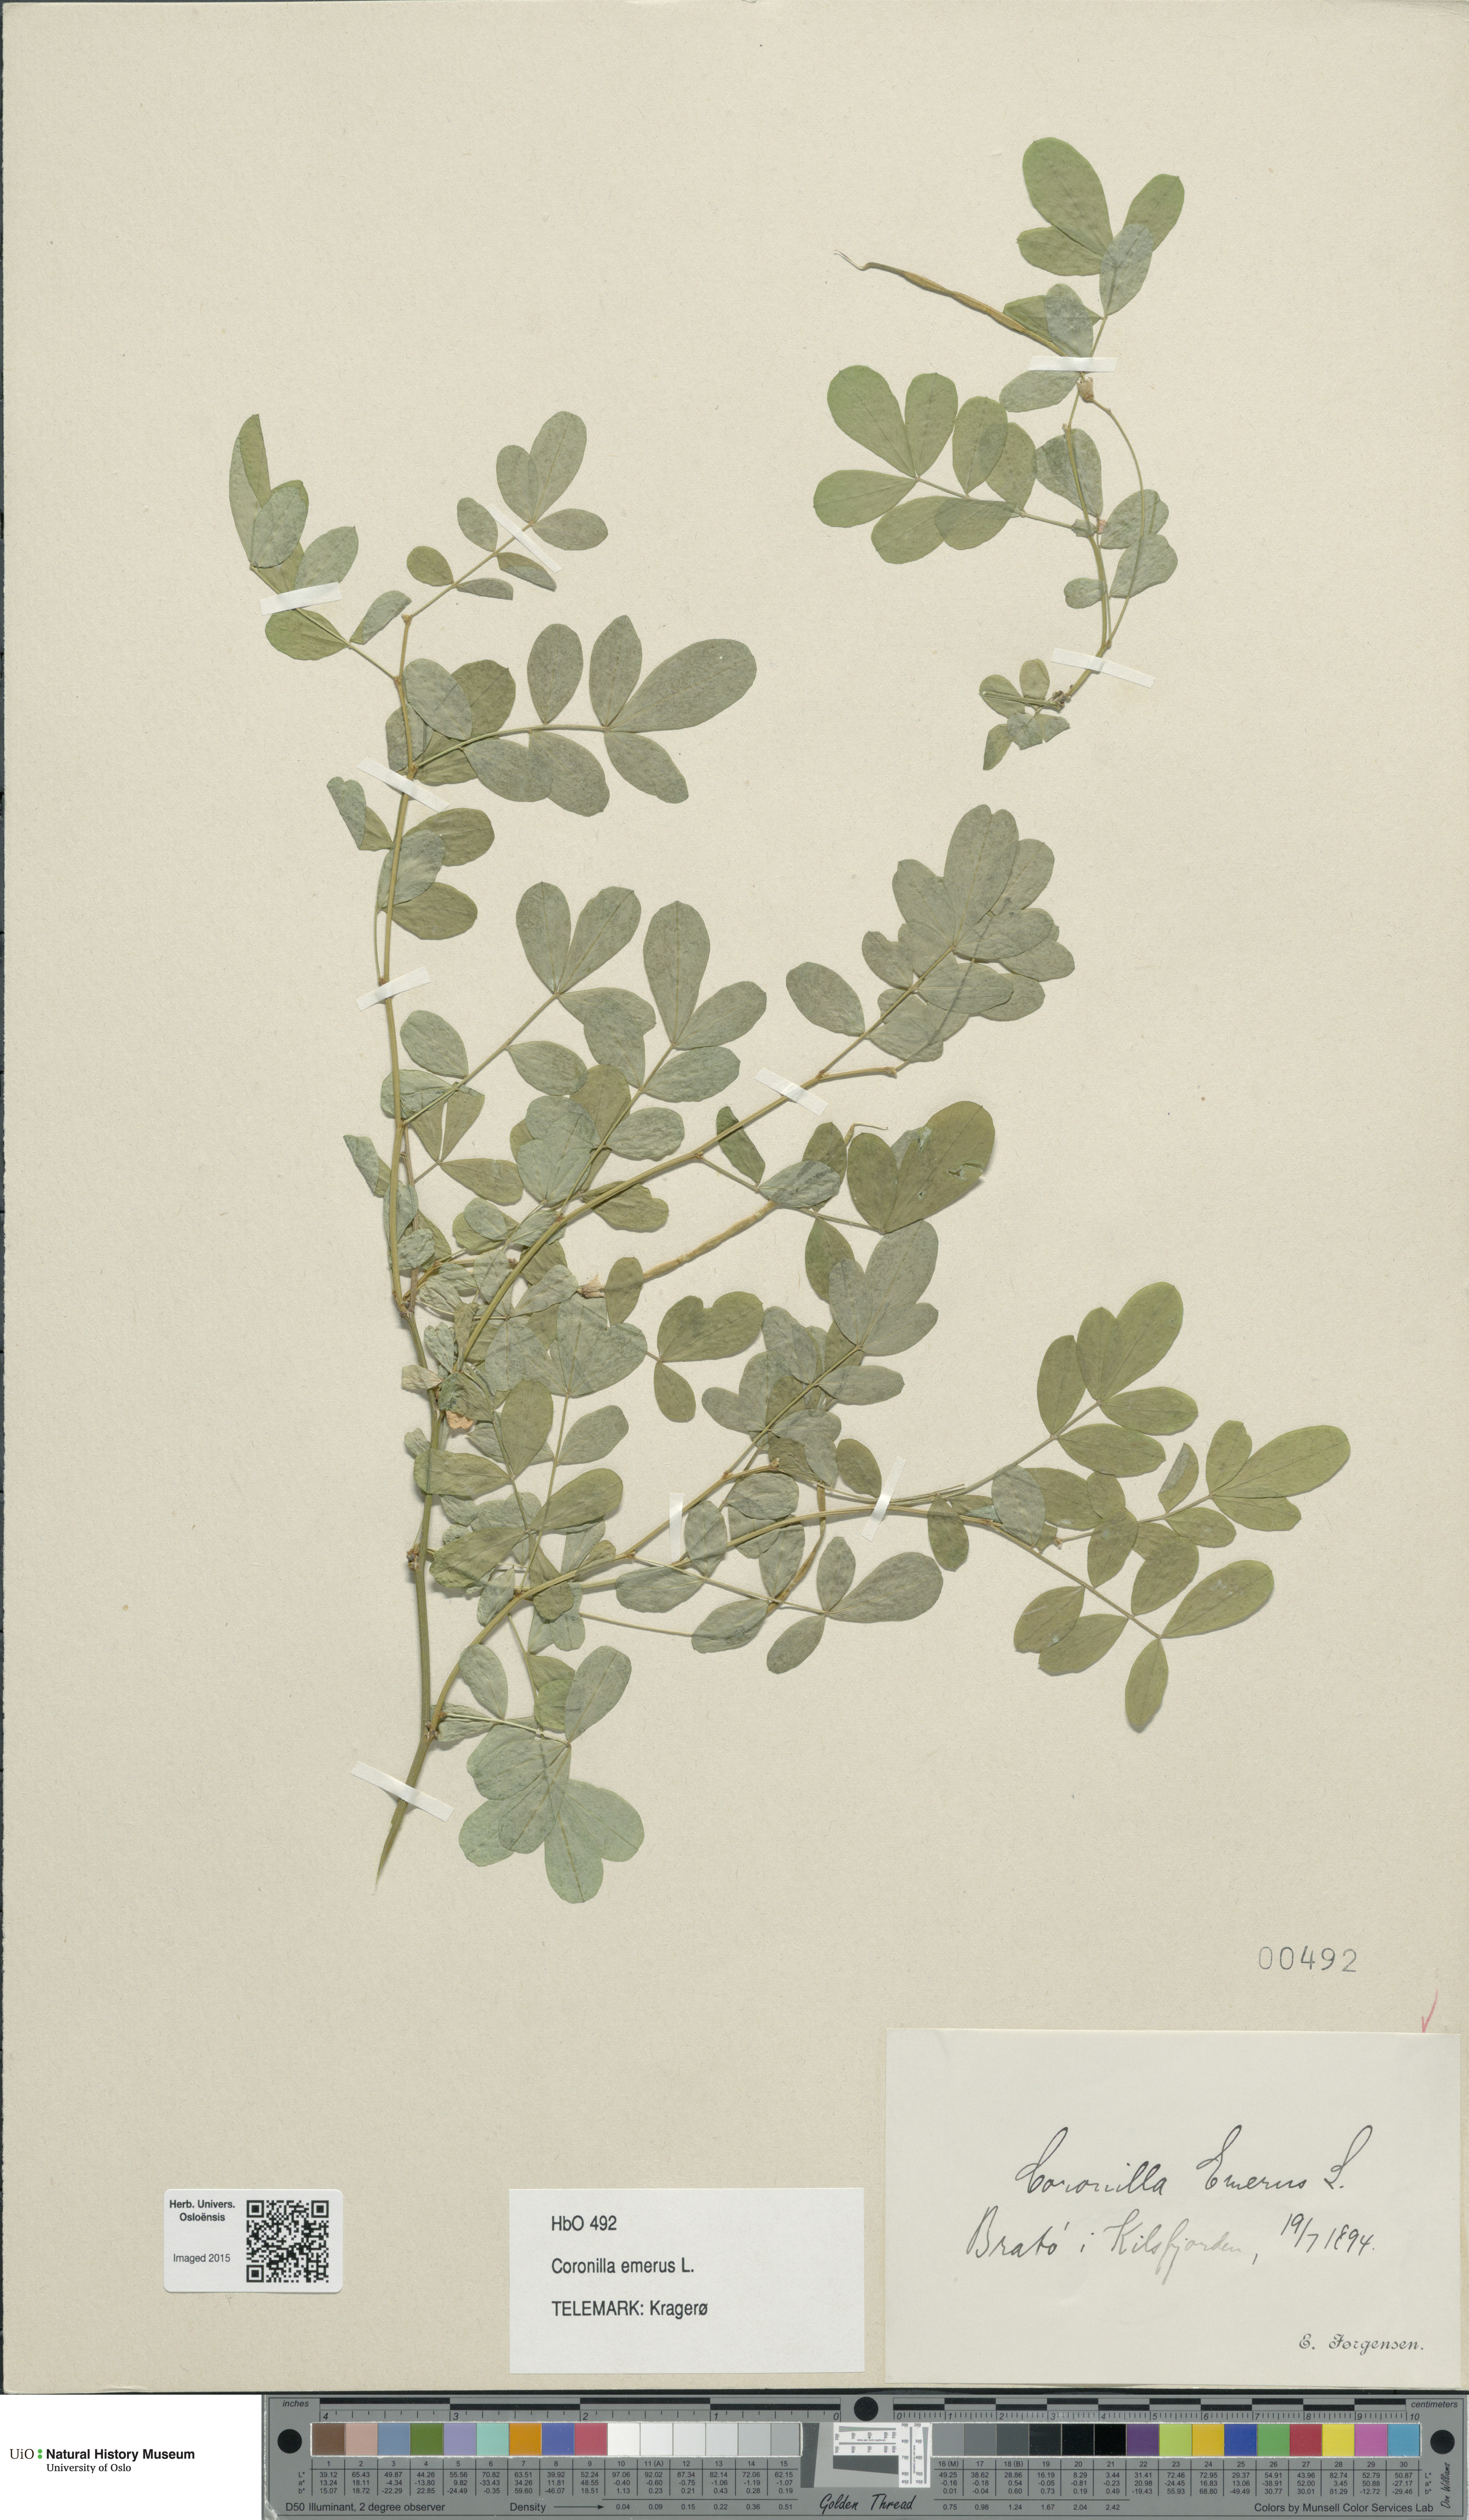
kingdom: Plantae
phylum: Tracheophyta
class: Magnoliopsida
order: Fabales
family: Fabaceae
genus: Hippocrepis
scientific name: Hippocrepis emerus
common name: Scorpion senna
